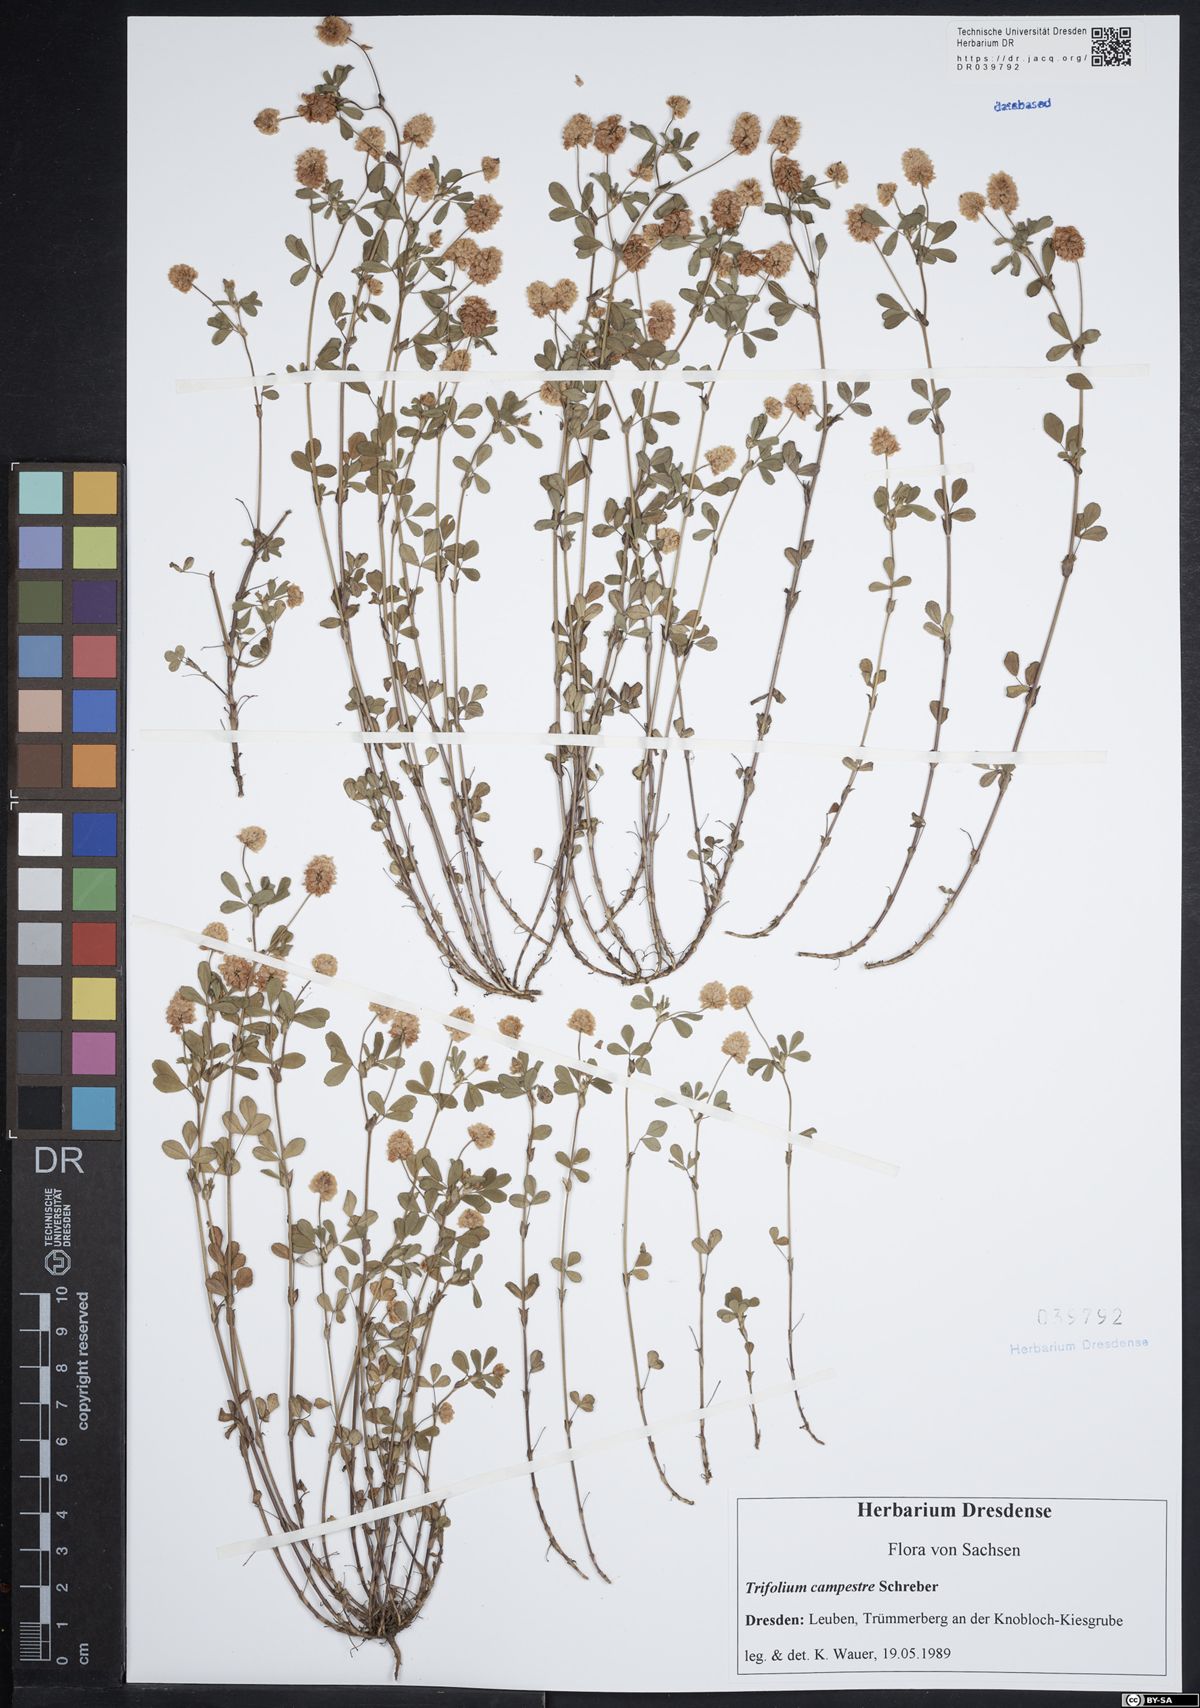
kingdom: Plantae
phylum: Tracheophyta
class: Magnoliopsida
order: Fabales
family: Fabaceae
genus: Trifolium
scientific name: Trifolium campestre
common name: Field clover
